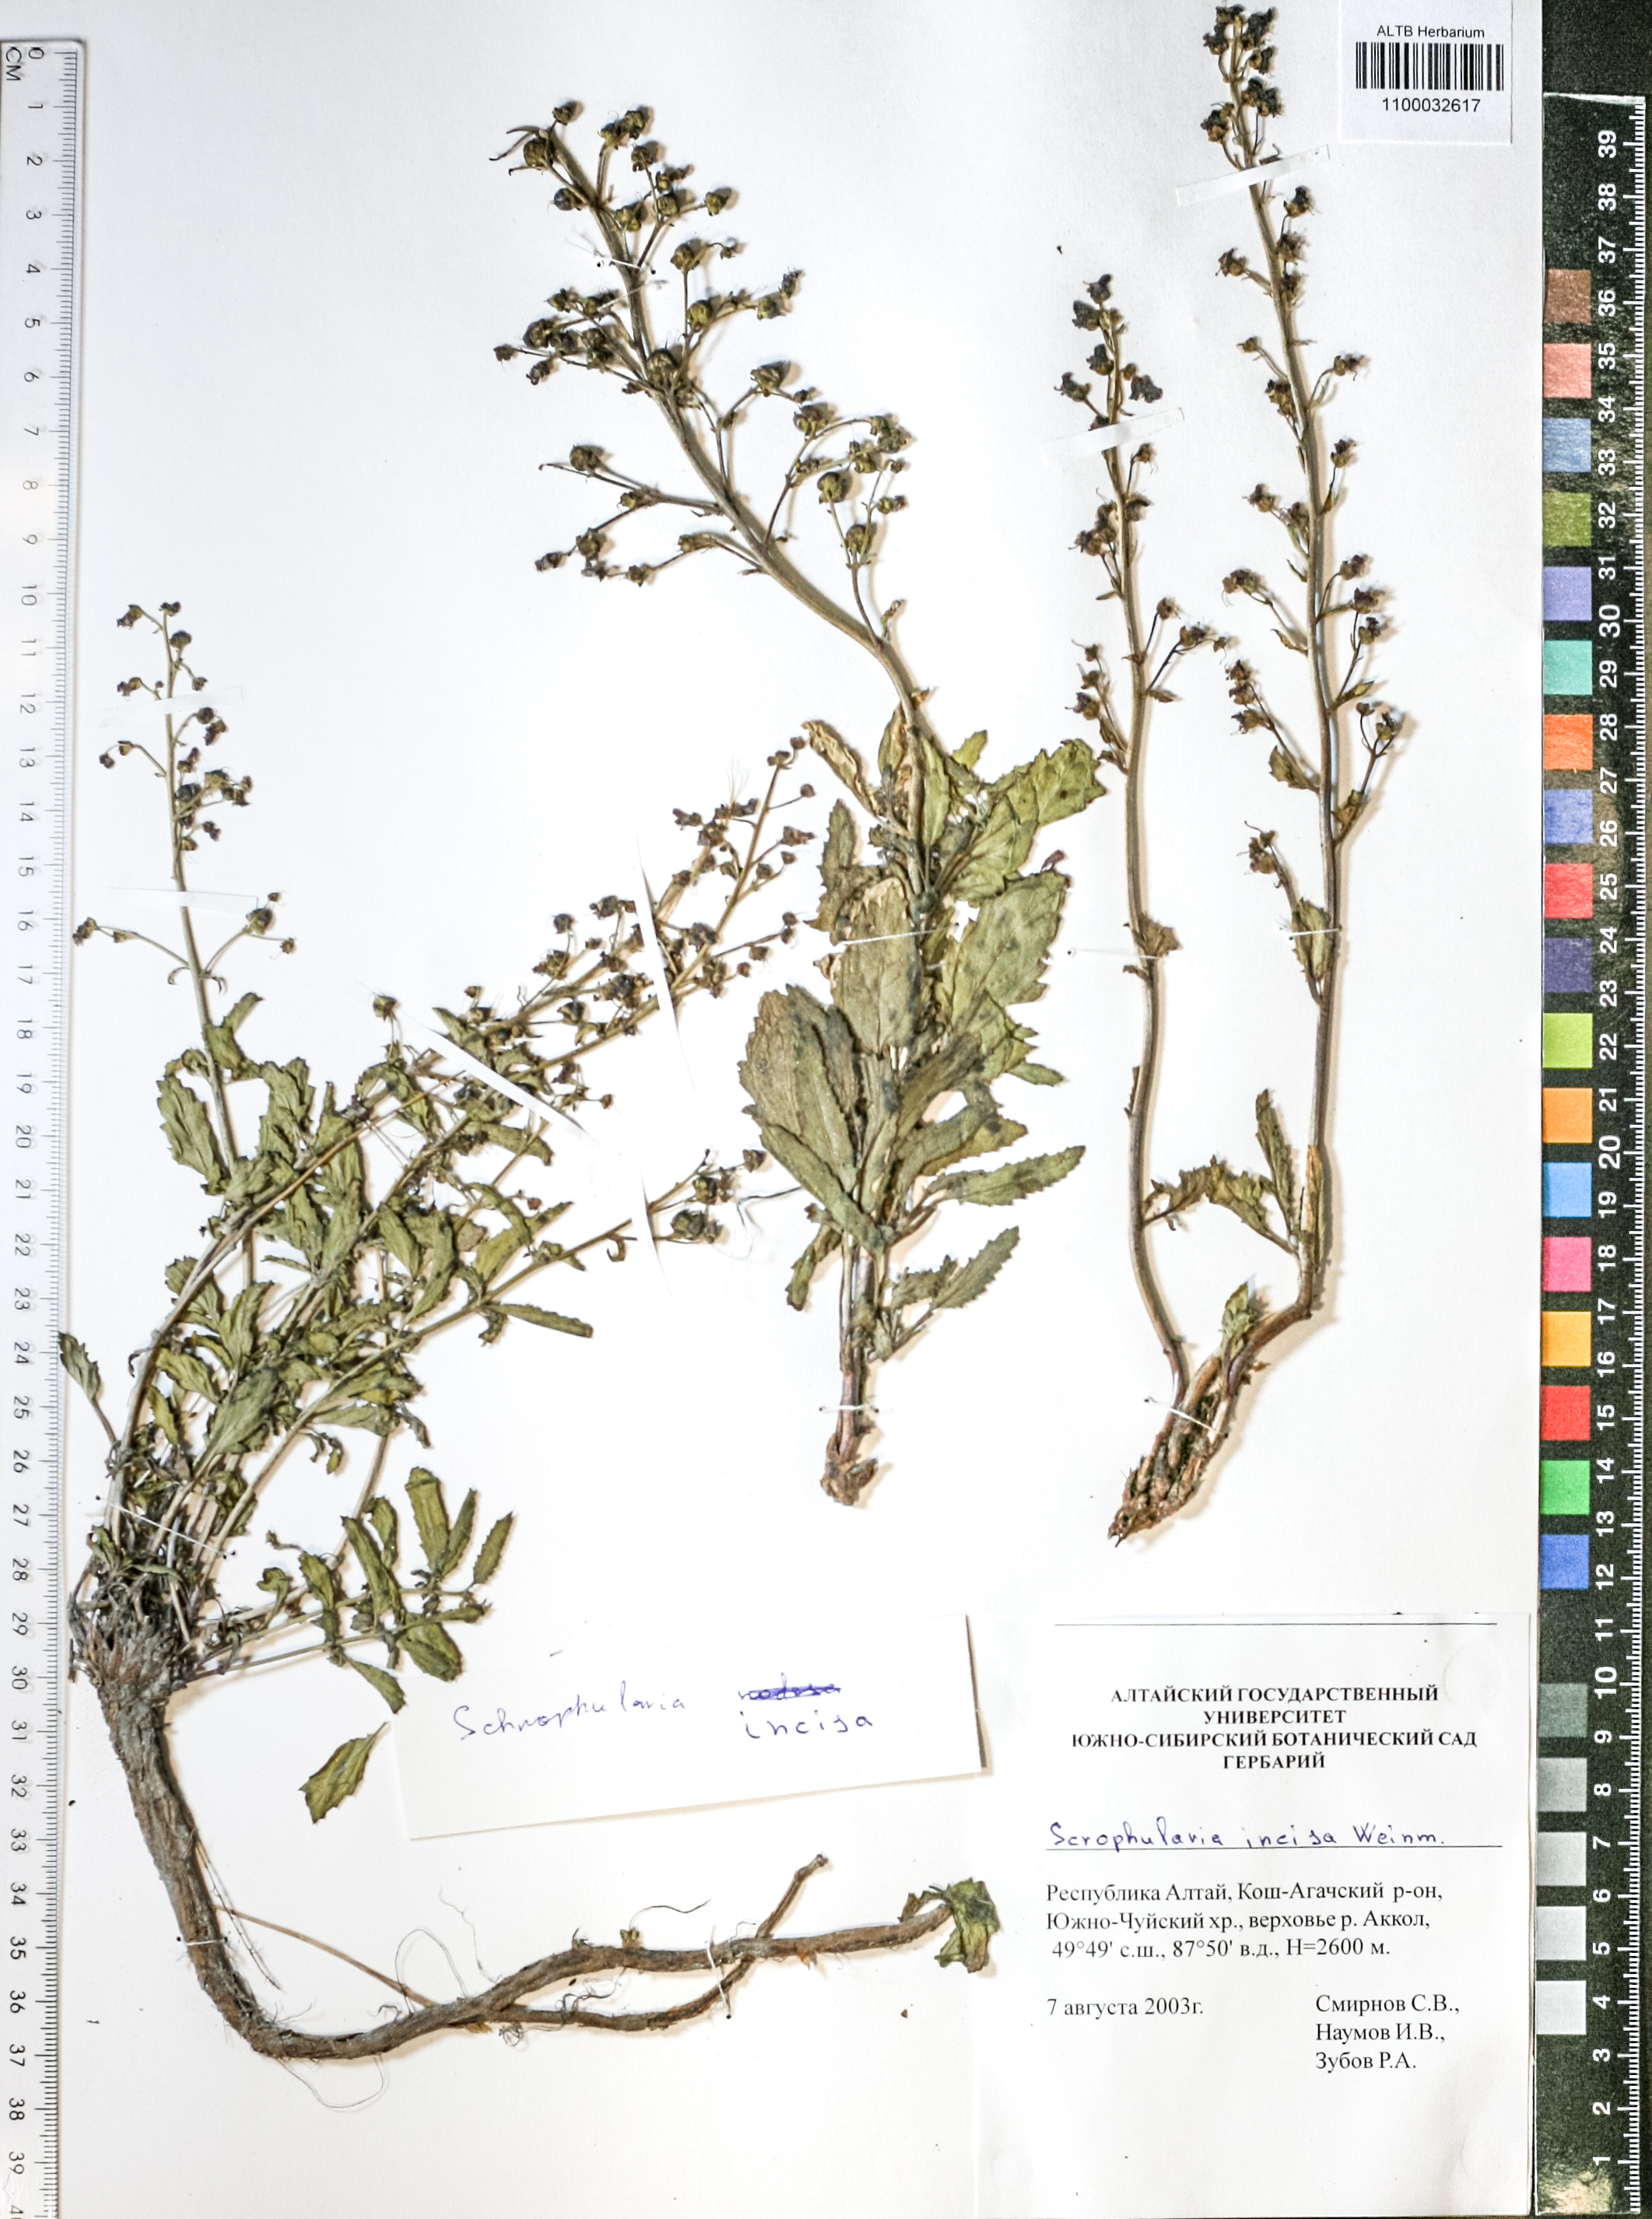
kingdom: Plantae
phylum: Tracheophyta
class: Magnoliopsida
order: Lamiales
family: Scrophulariaceae
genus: Scrophularia
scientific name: Scrophularia incisa
